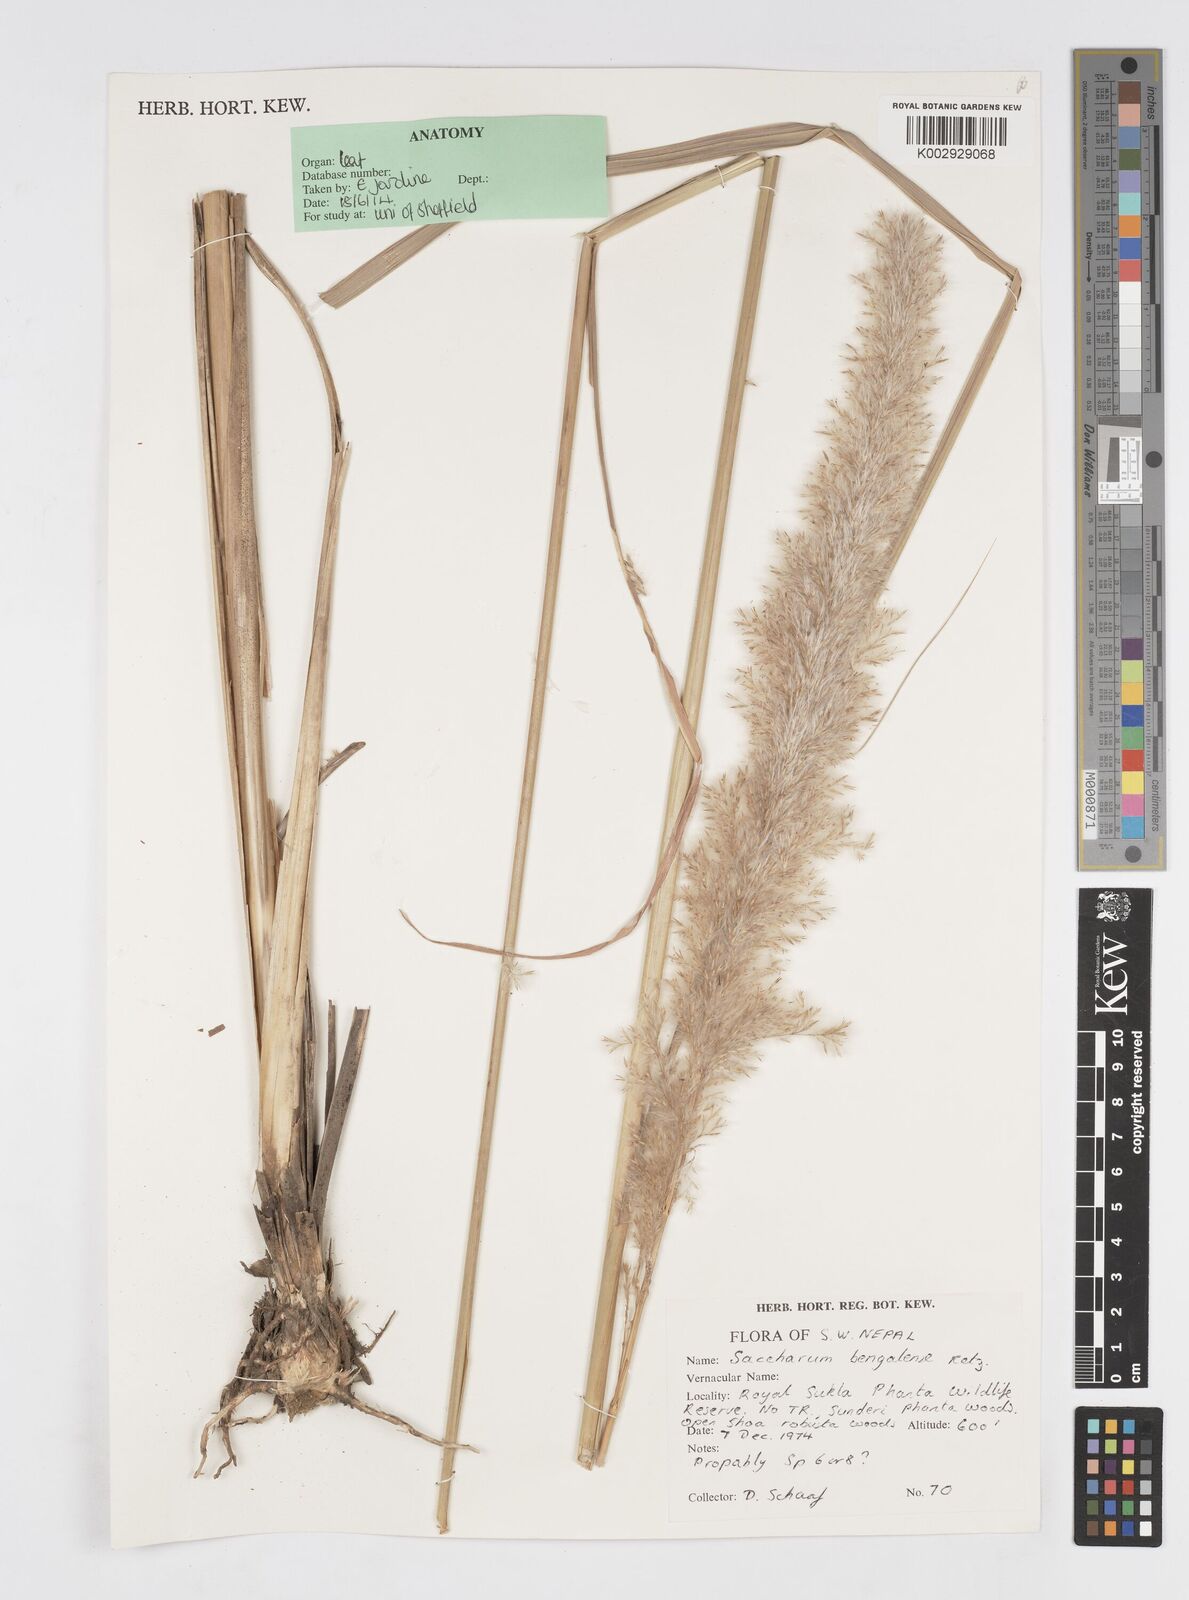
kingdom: Plantae
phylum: Tracheophyta
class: Liliopsida
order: Poales
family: Poaceae
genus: Tripidium
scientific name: Tripidium bengalense
